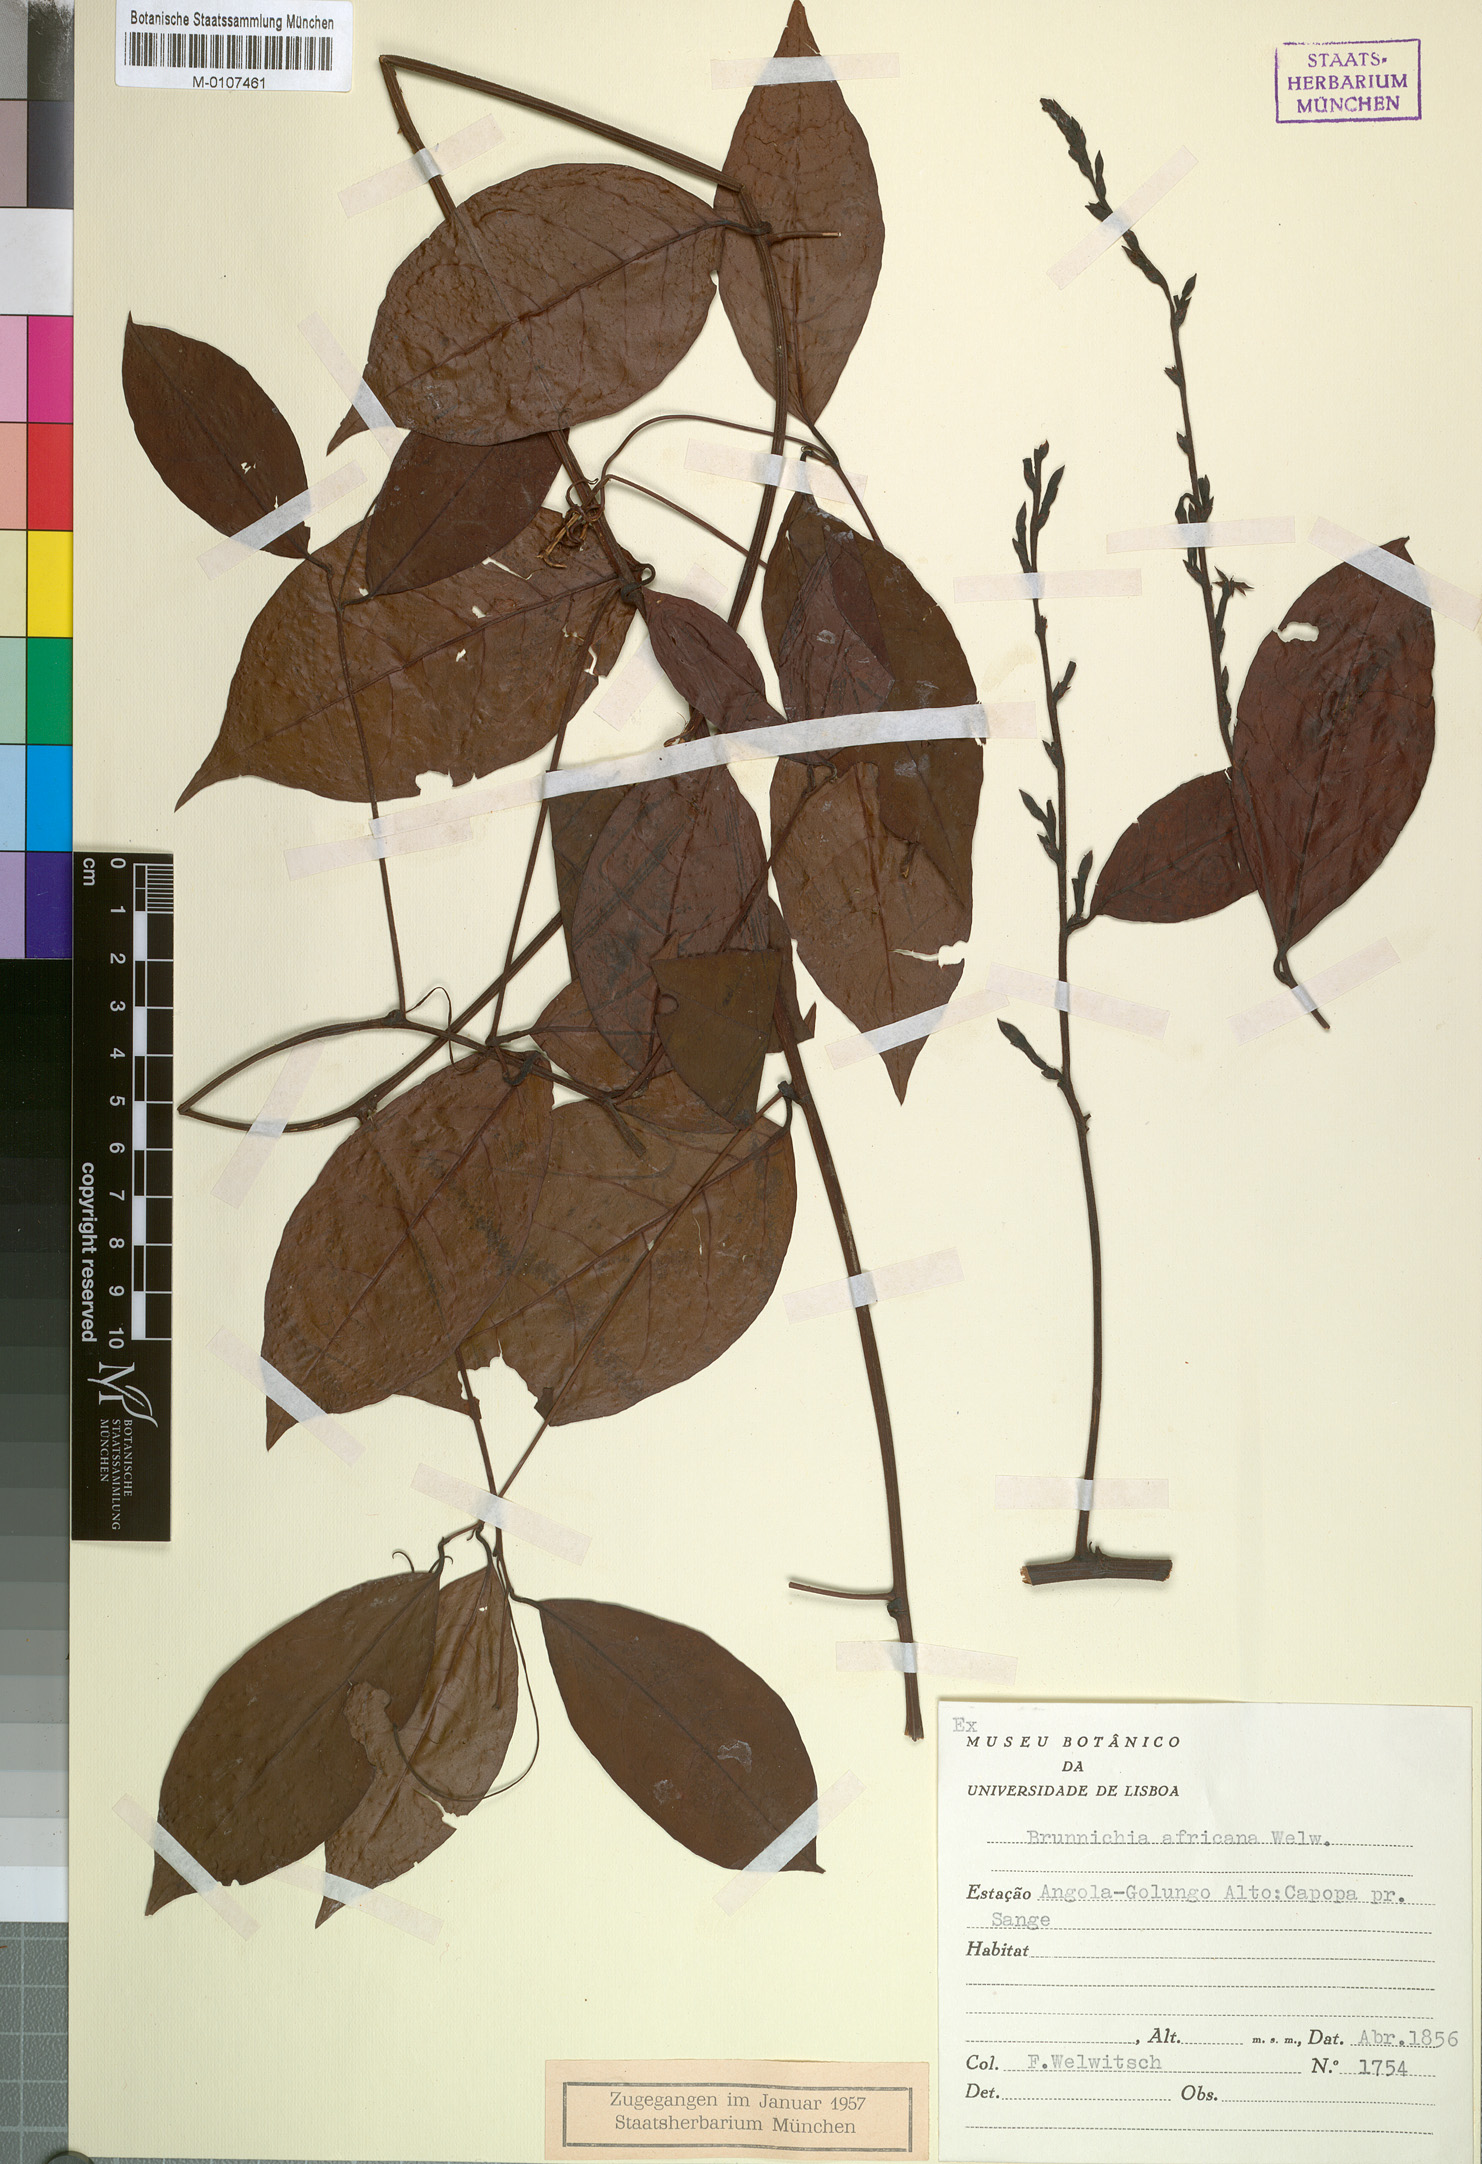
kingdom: Plantae
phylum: Tracheophyta
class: Magnoliopsida
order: Caryophyllales
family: Polygonaceae
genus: Afrobrunnichia
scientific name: Afrobrunnichia africana
